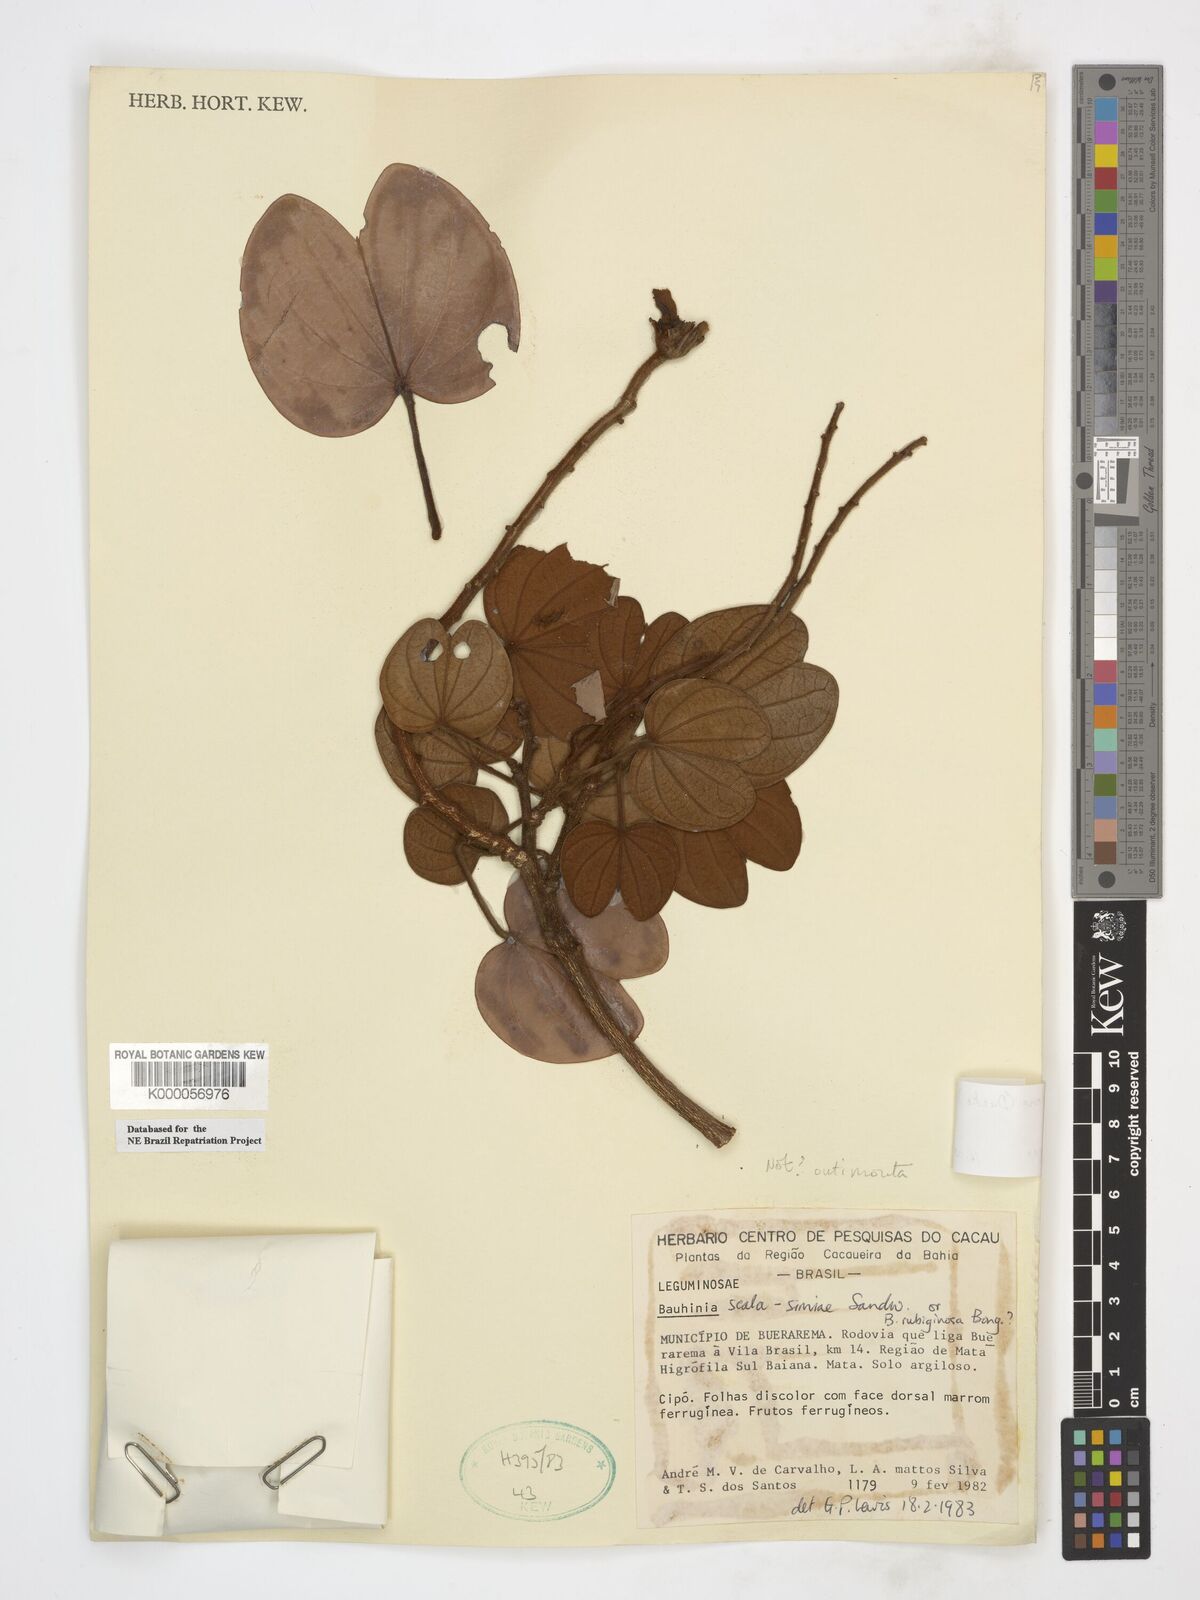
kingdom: Plantae
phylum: Tracheophyta
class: Magnoliopsida
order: Fabales
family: Fabaceae
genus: Schnella
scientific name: Schnella cupreonitens
